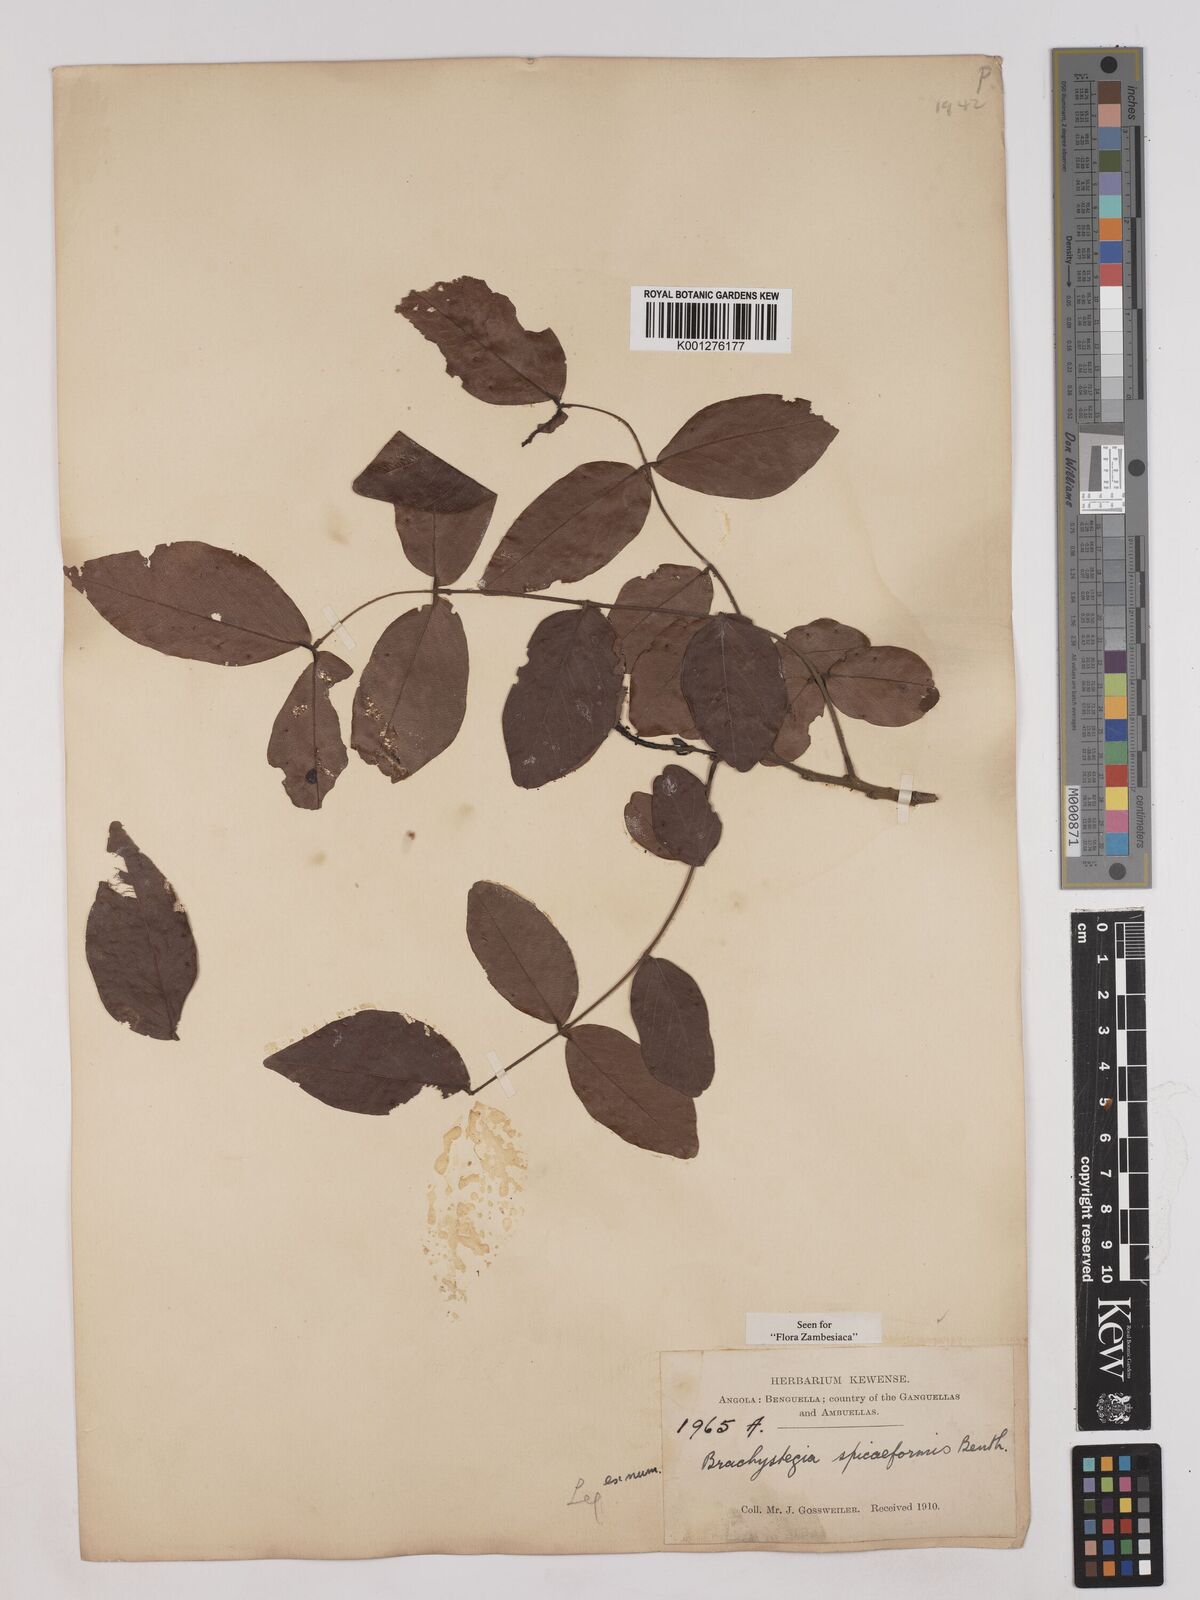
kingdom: Plantae
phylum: Tracheophyta
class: Magnoliopsida
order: Fabales
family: Fabaceae
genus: Brachystegia
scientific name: Brachystegia
